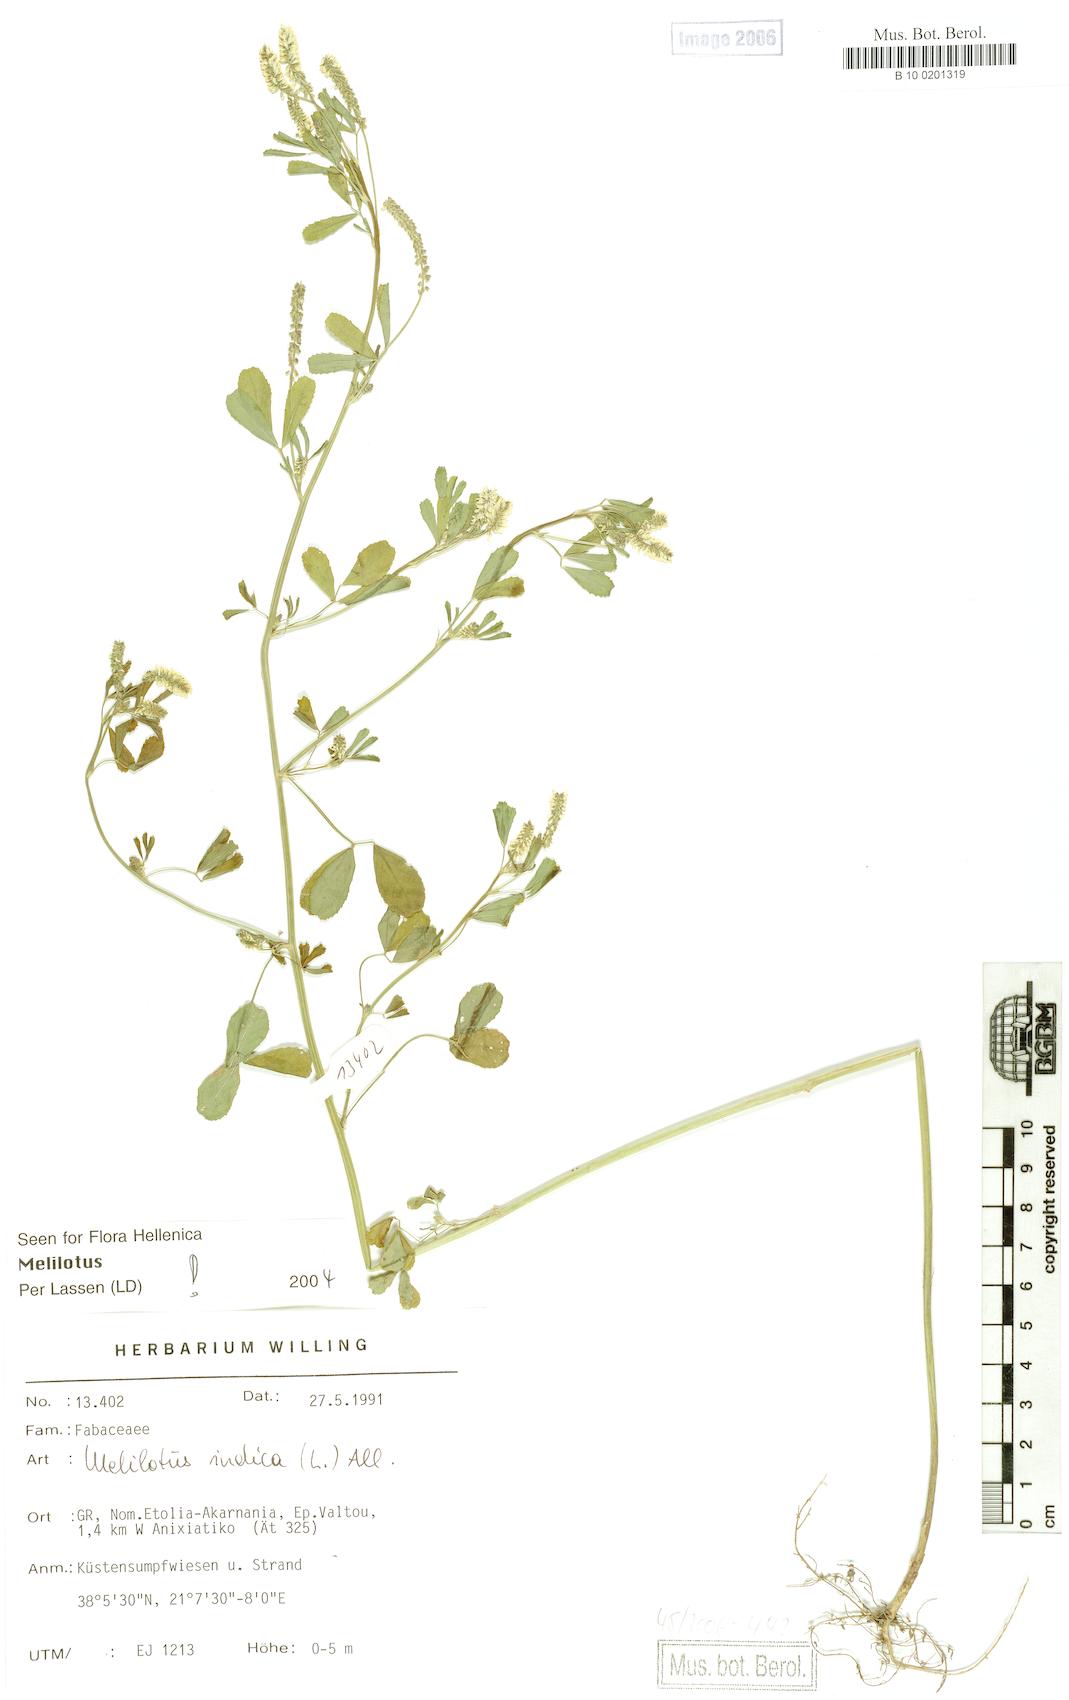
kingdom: Plantae
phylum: Tracheophyta
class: Magnoliopsida
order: Fabales
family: Fabaceae
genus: Melilotus
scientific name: Melilotus indicus
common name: Small melilot
